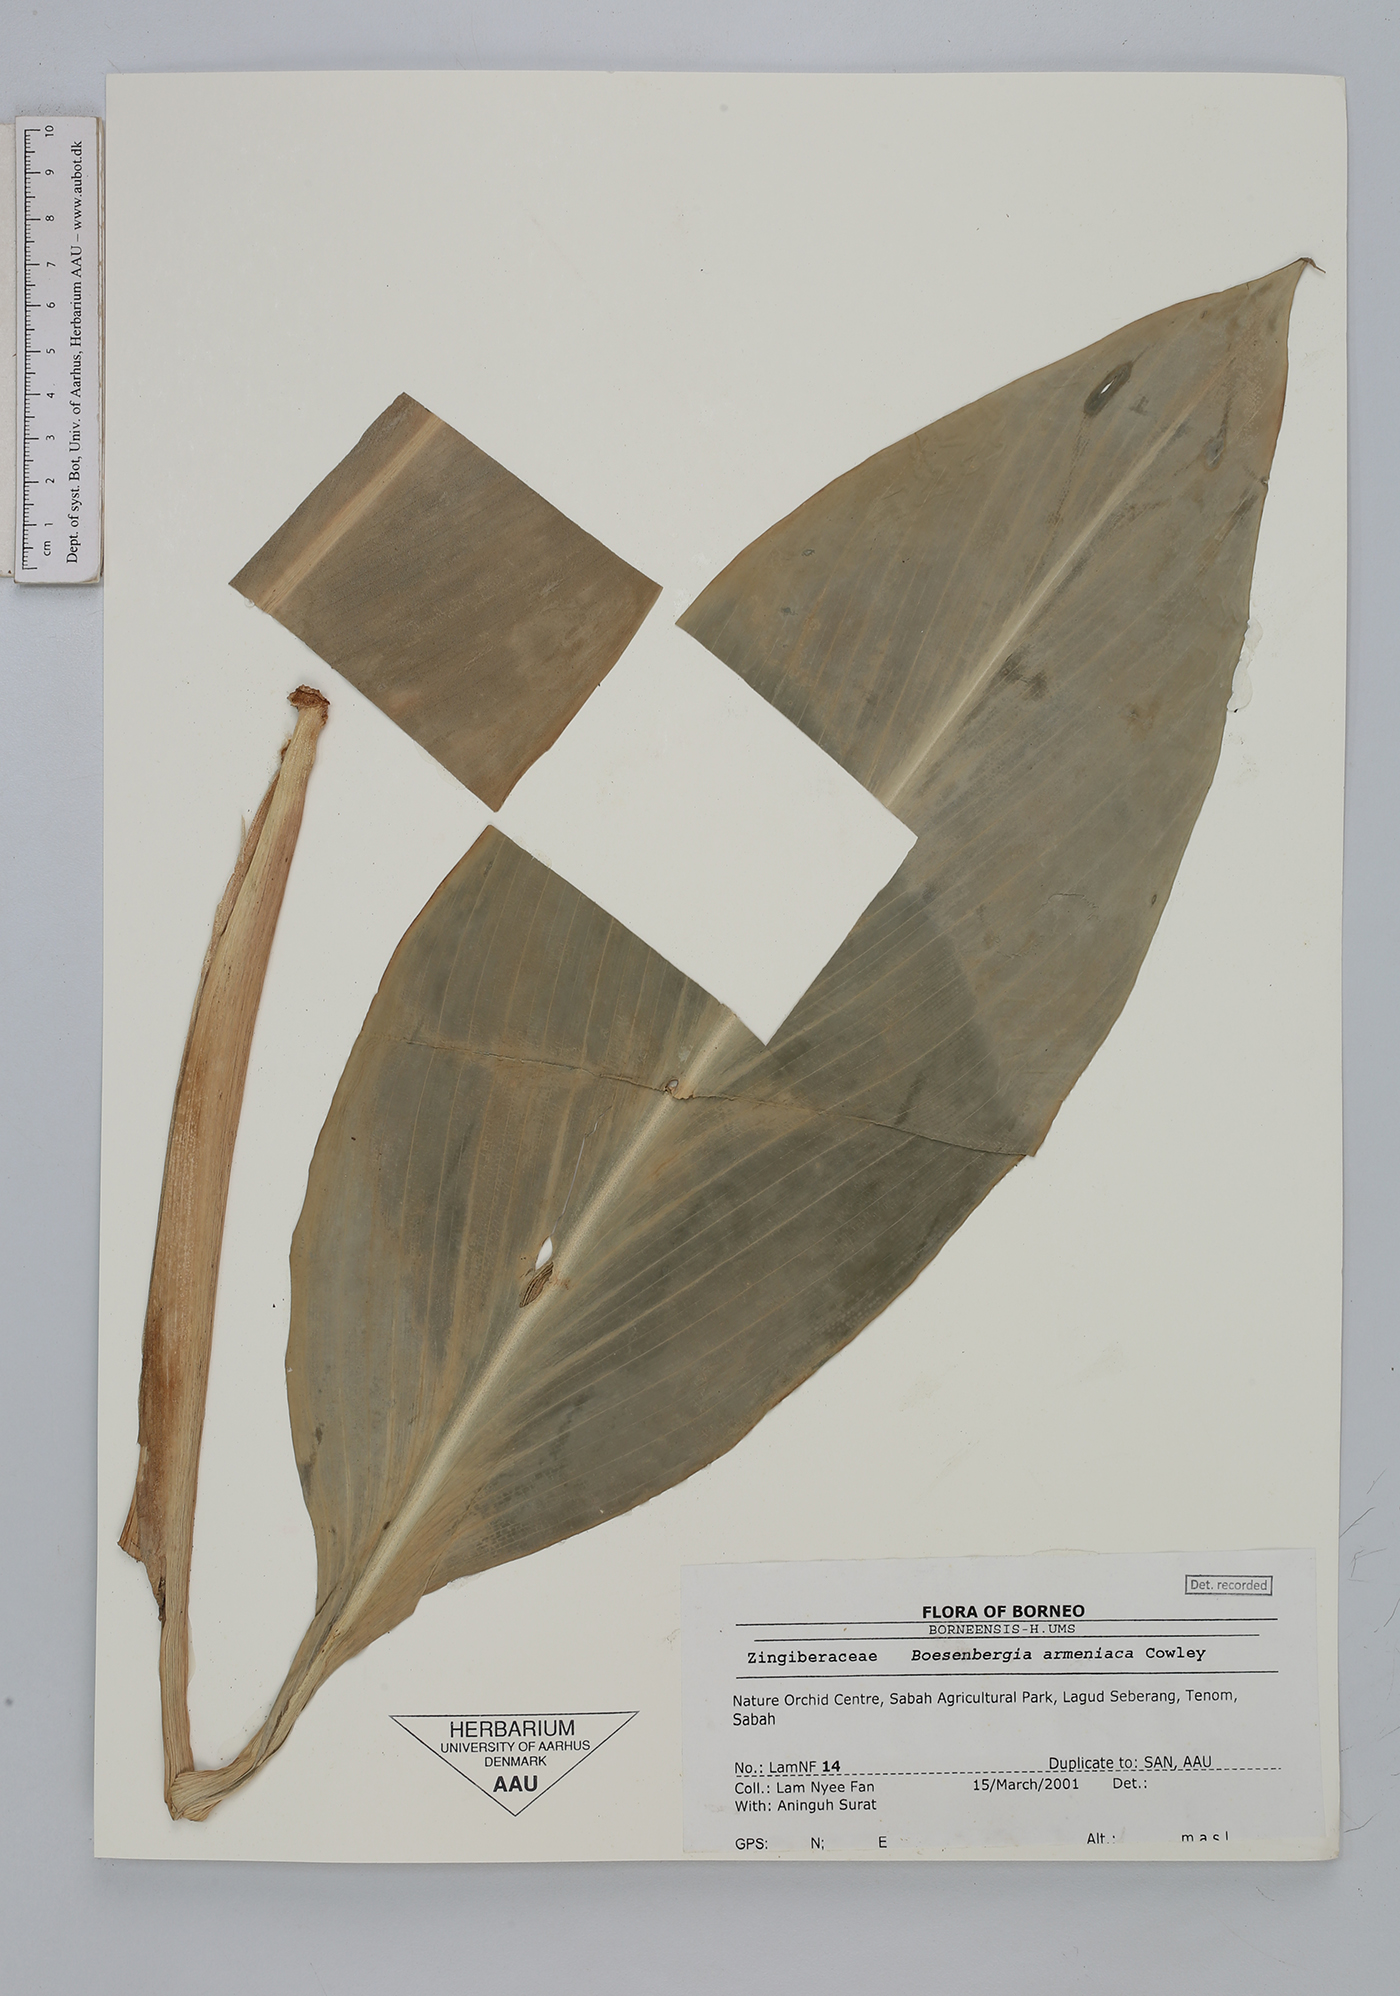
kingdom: Plantae
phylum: Tracheophyta
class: Liliopsida
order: Zingiberales
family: Zingiberaceae
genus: Boesenbergia
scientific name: Boesenbergia armeniaca
